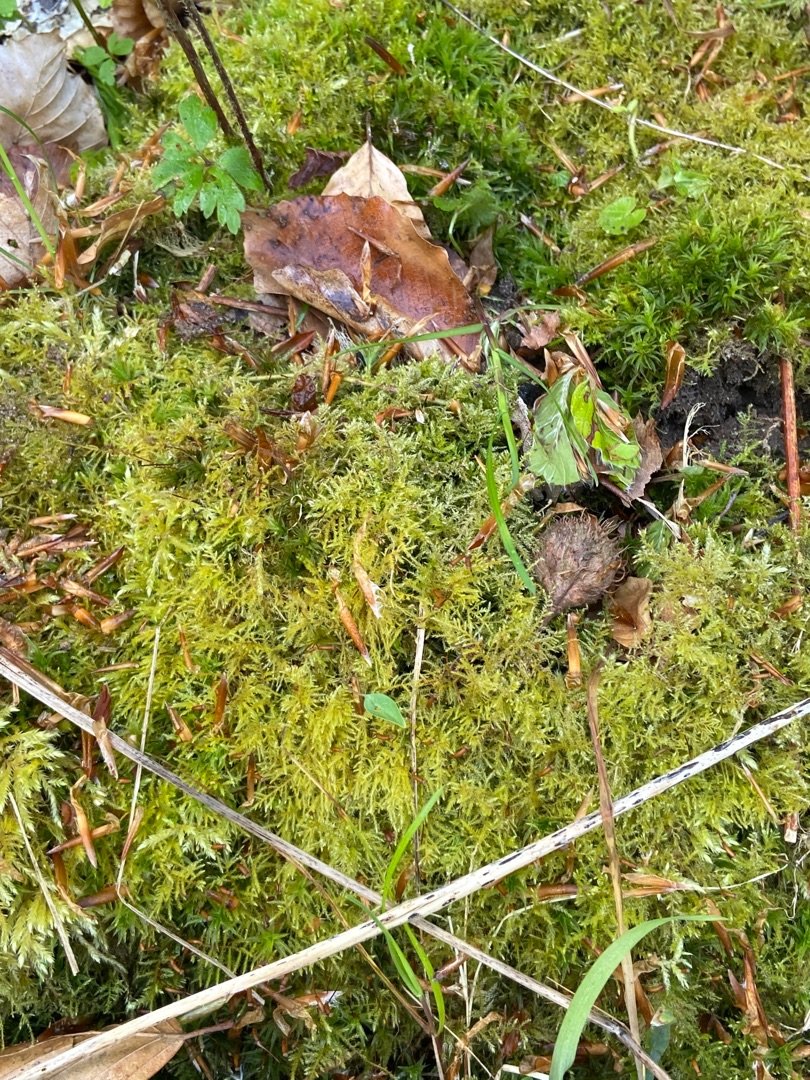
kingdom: Plantae
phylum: Bryophyta
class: Bryopsida
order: Hypnales
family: Brachytheciaceae
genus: Kindbergia
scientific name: Kindbergia praelonga
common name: Forskelligbladet vortetand
